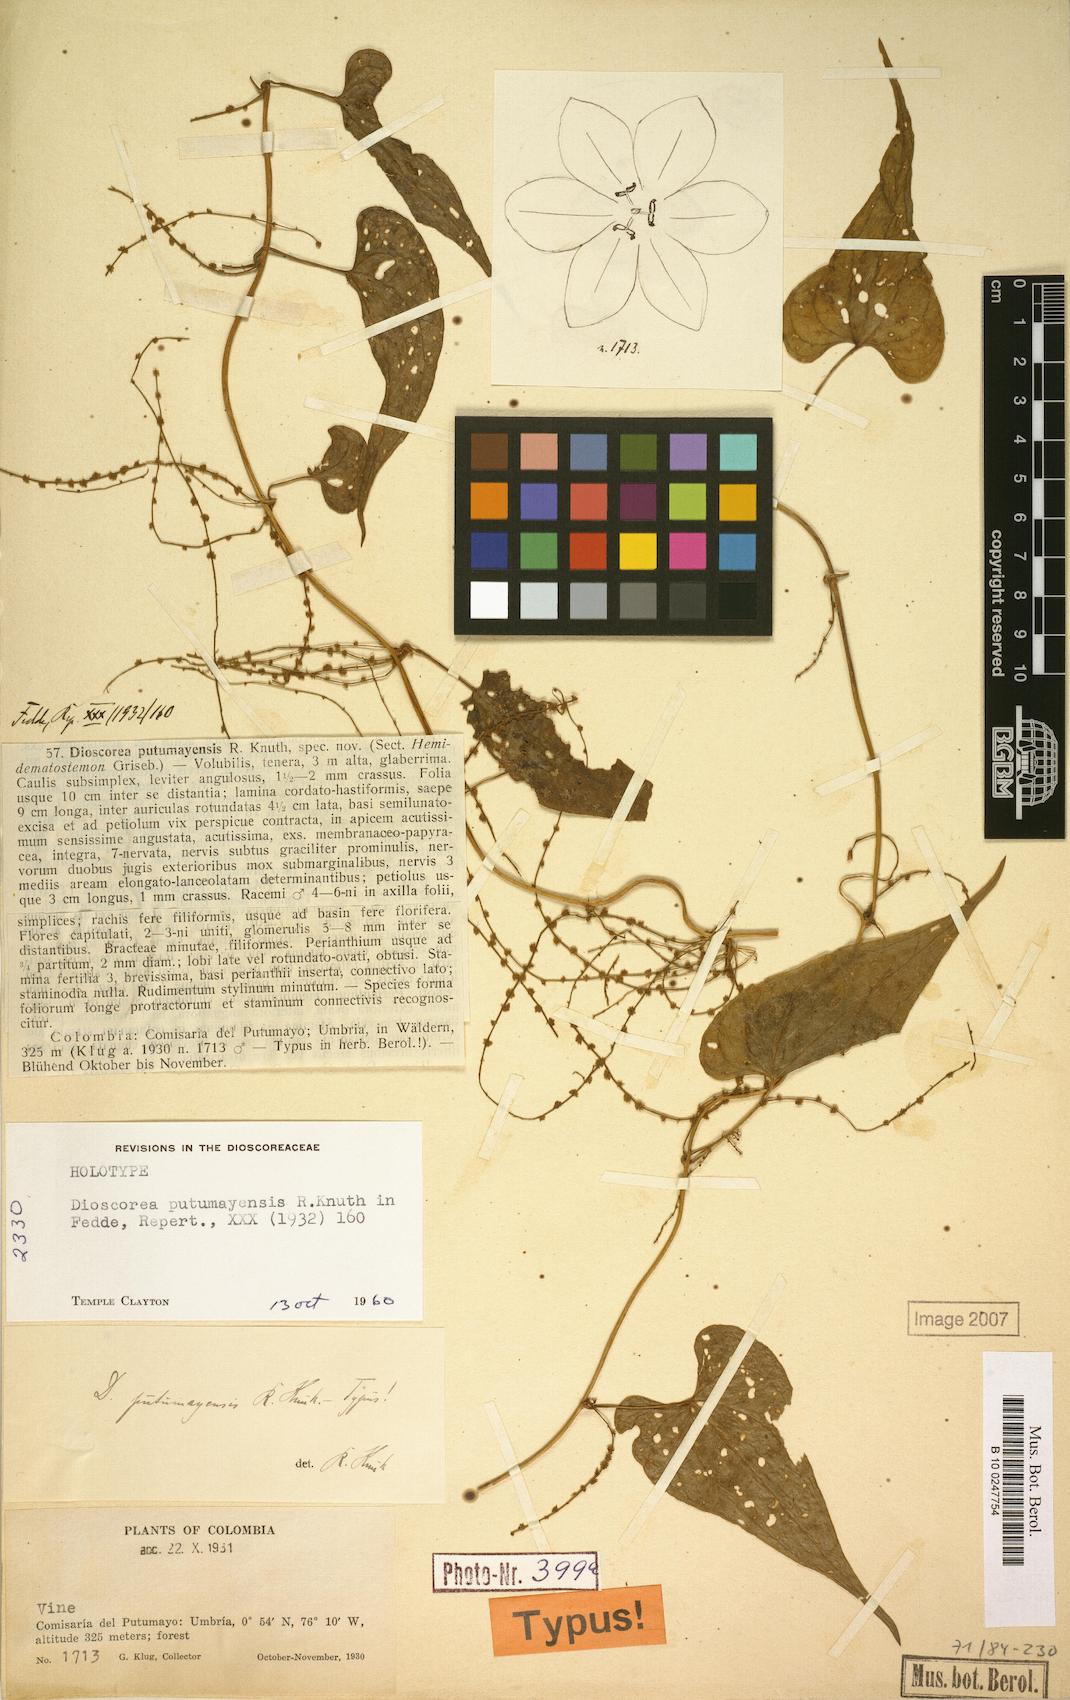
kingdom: Plantae
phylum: Tracheophyta
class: Liliopsida
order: Dioscoreales
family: Dioscoreaceae
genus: Dioscorea
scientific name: Dioscorea putumayensis
